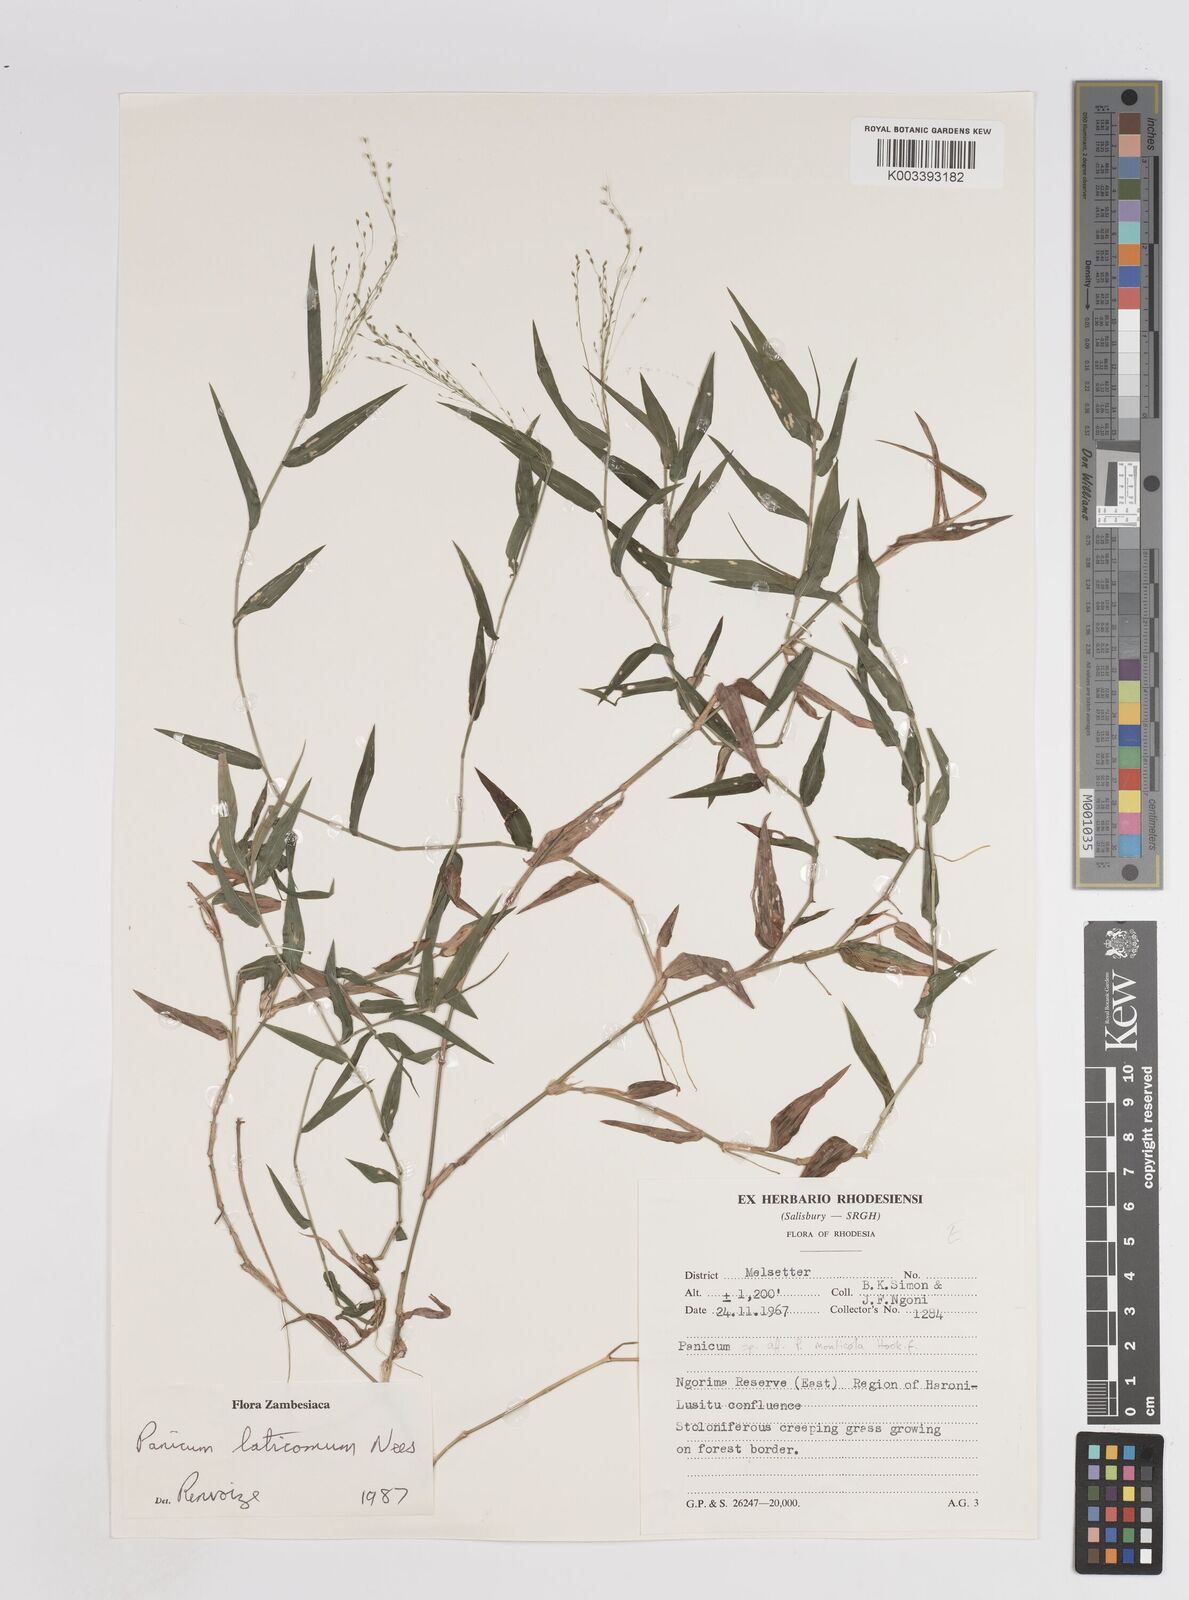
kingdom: Plantae
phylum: Tracheophyta
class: Liliopsida
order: Poales
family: Poaceae
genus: Panicum
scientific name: Panicum laticomum
